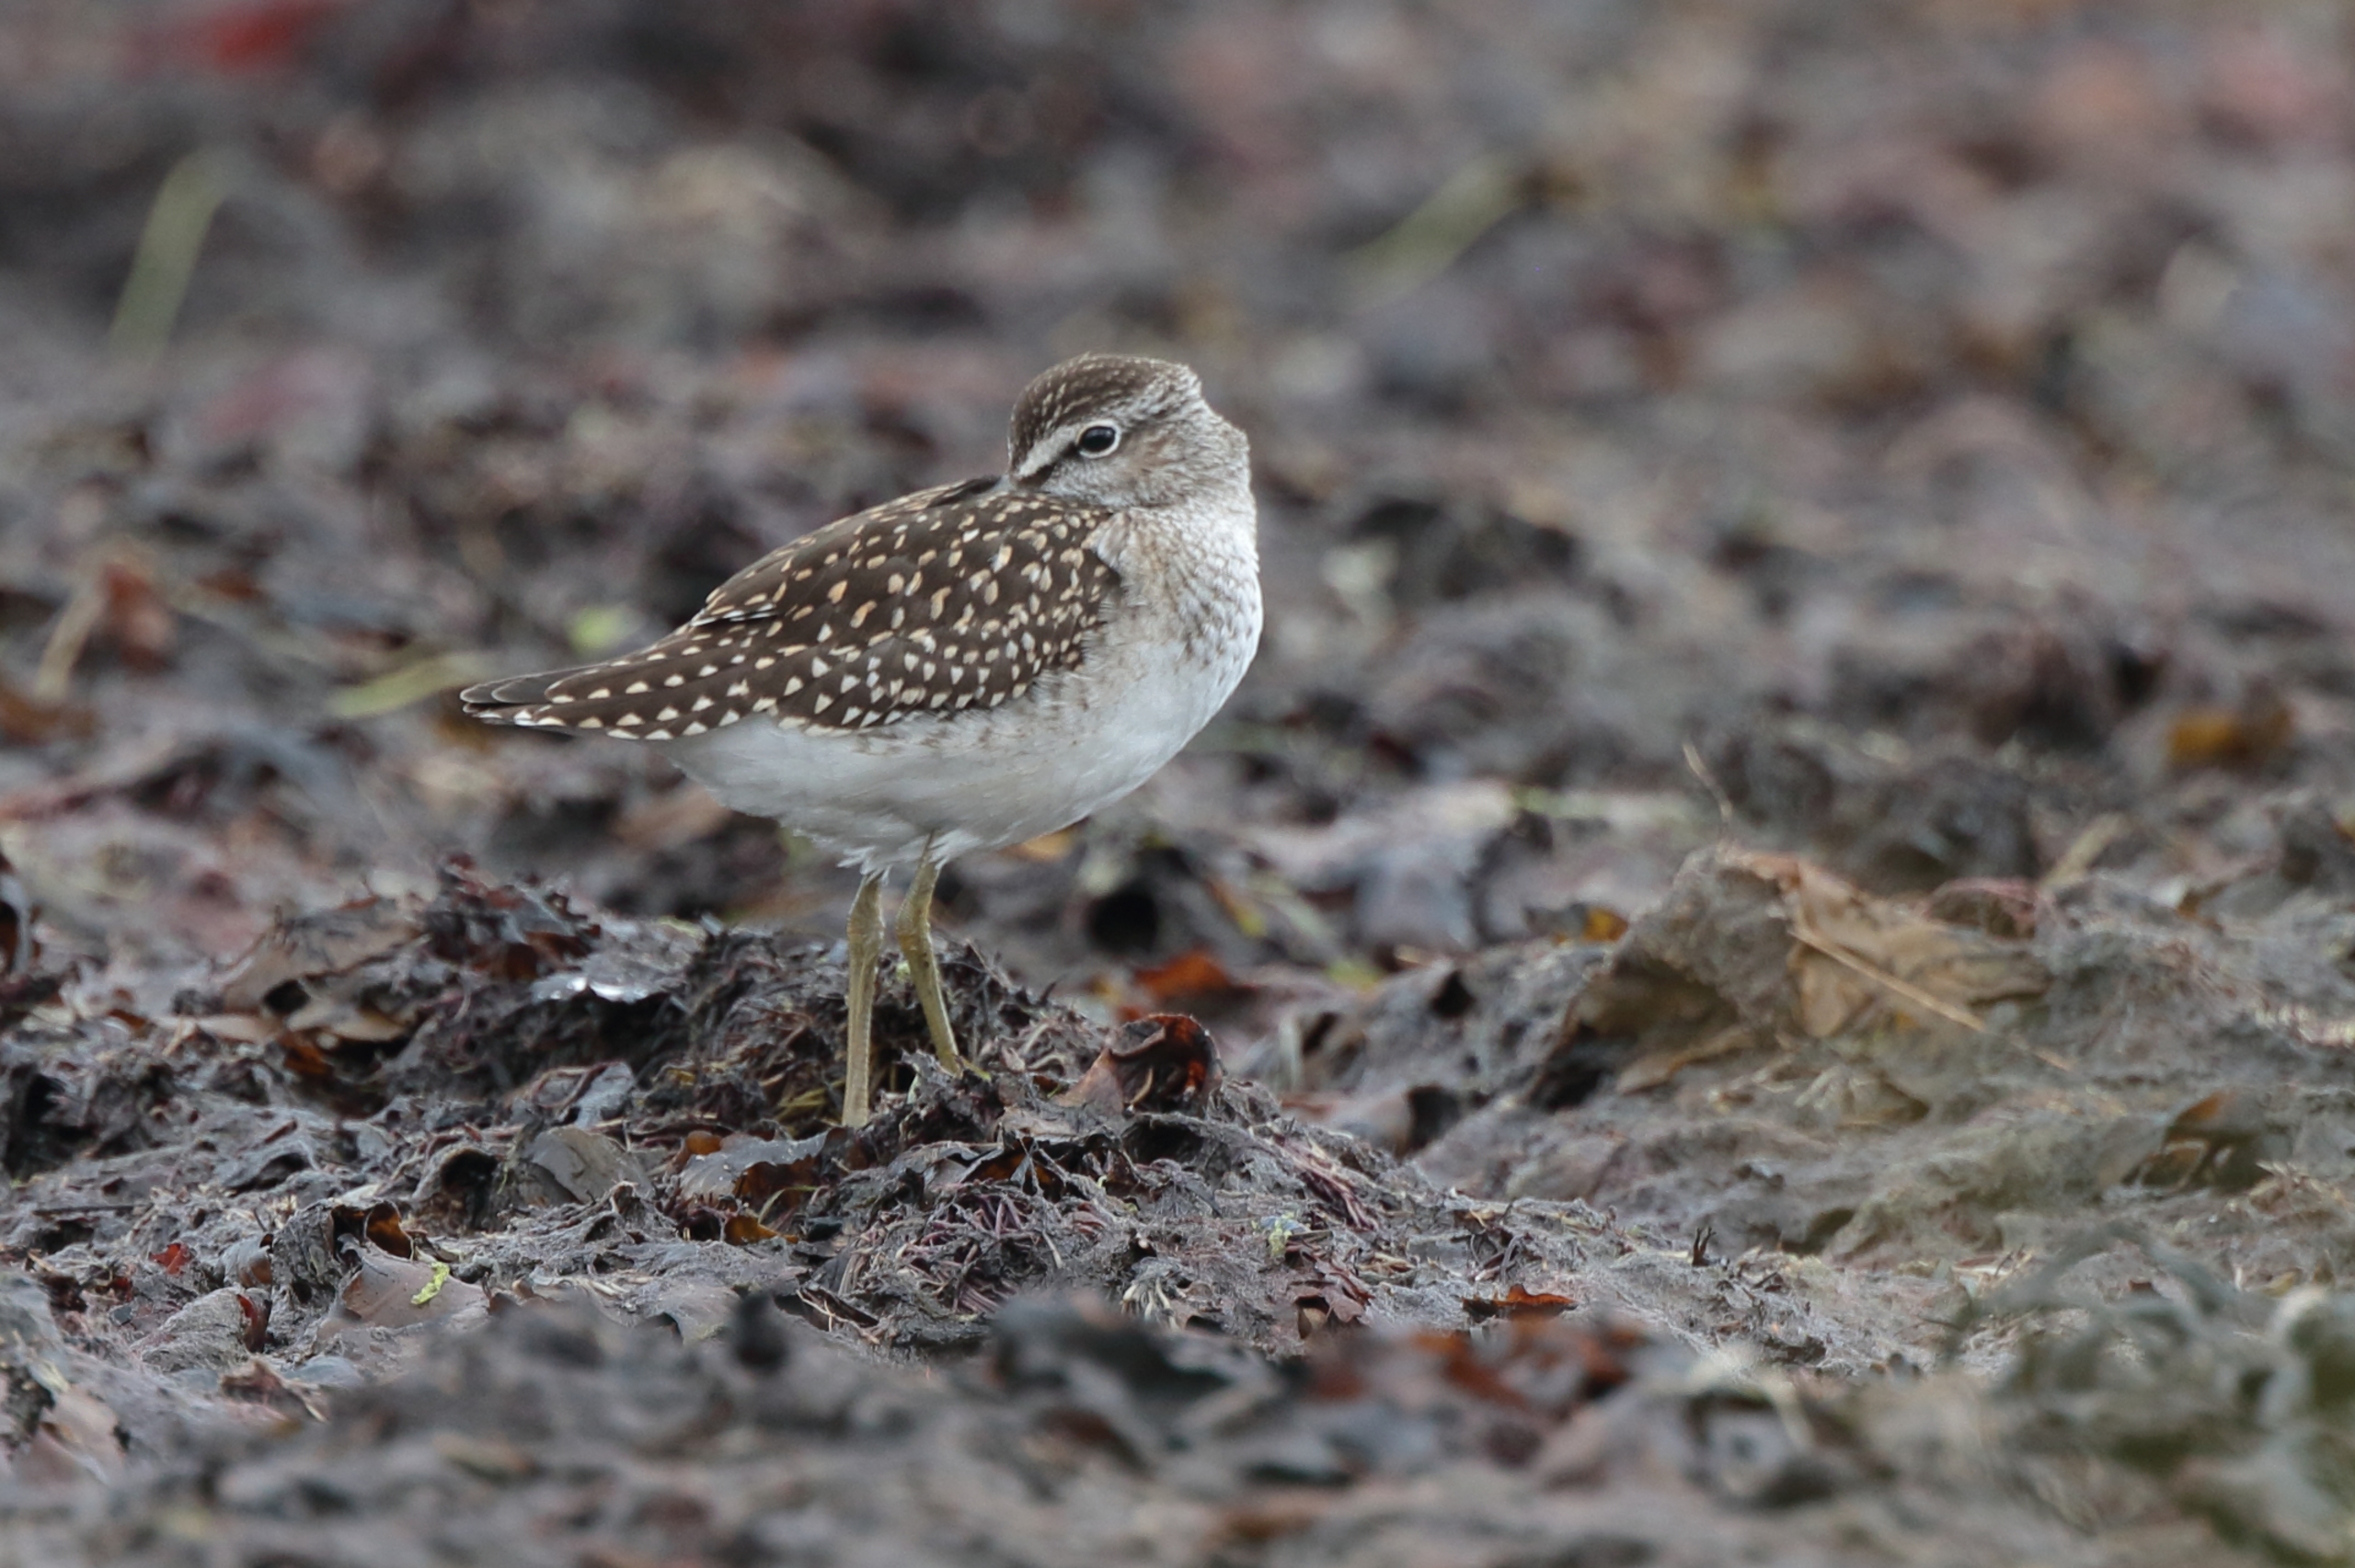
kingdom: Animalia
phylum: Chordata
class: Aves
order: Charadriiformes
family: Scolopacidae
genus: Tringa
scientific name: Tringa glareola
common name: Tinksmed
